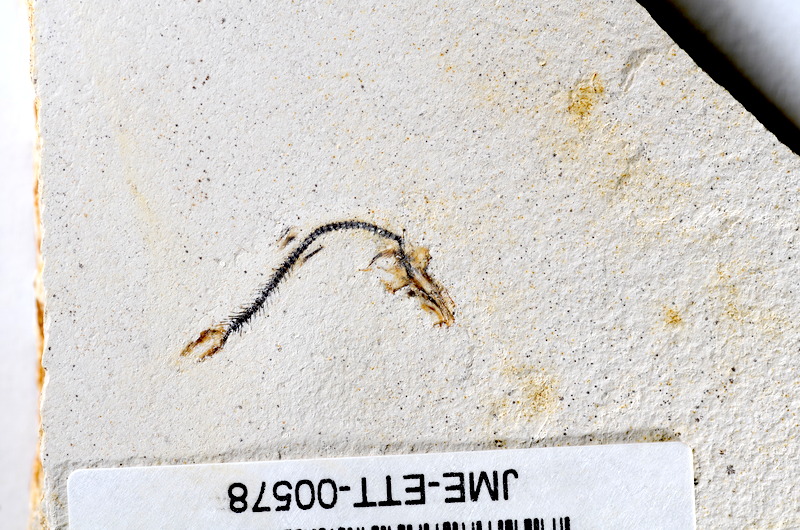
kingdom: Animalia
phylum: Chordata
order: Salmoniformes
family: Orthogonikleithridae
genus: Orthogonikleithrus
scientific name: Orthogonikleithrus hoelli
